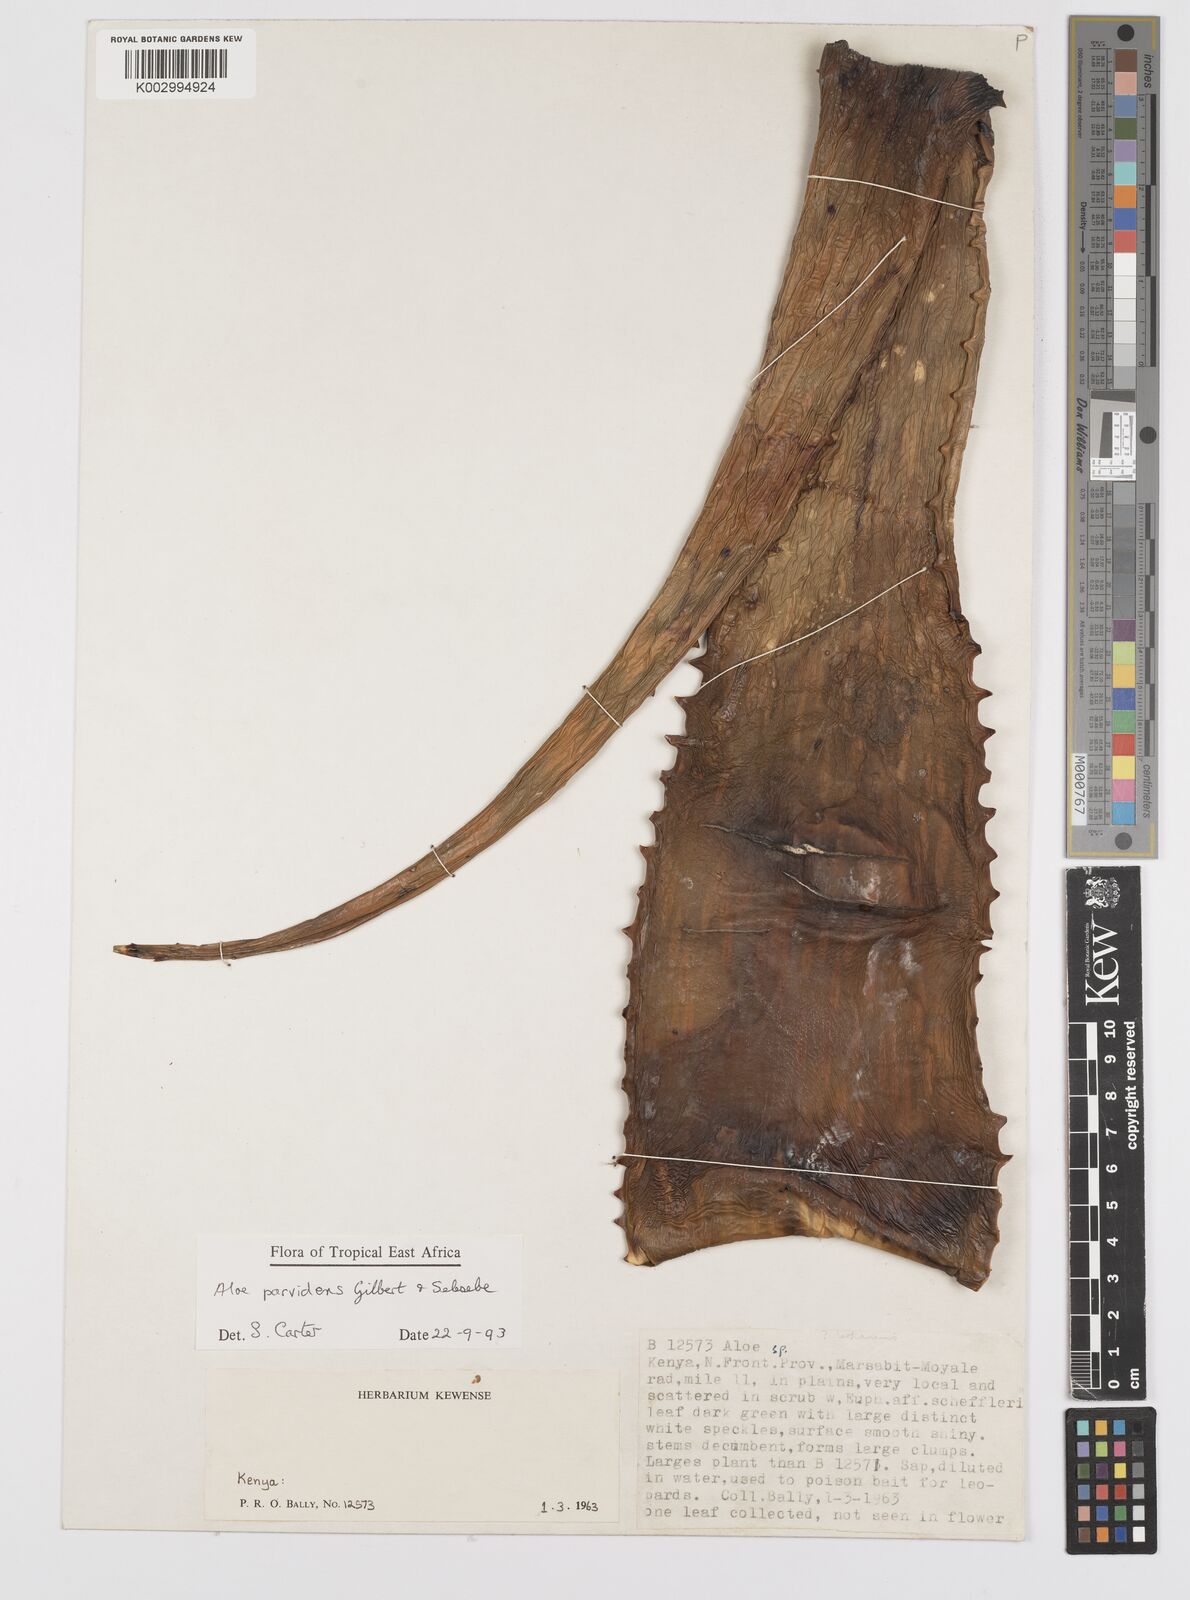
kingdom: Plantae
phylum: Tracheophyta
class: Liliopsida
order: Asparagales
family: Asphodelaceae
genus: Aloe
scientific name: Aloe parvidens
